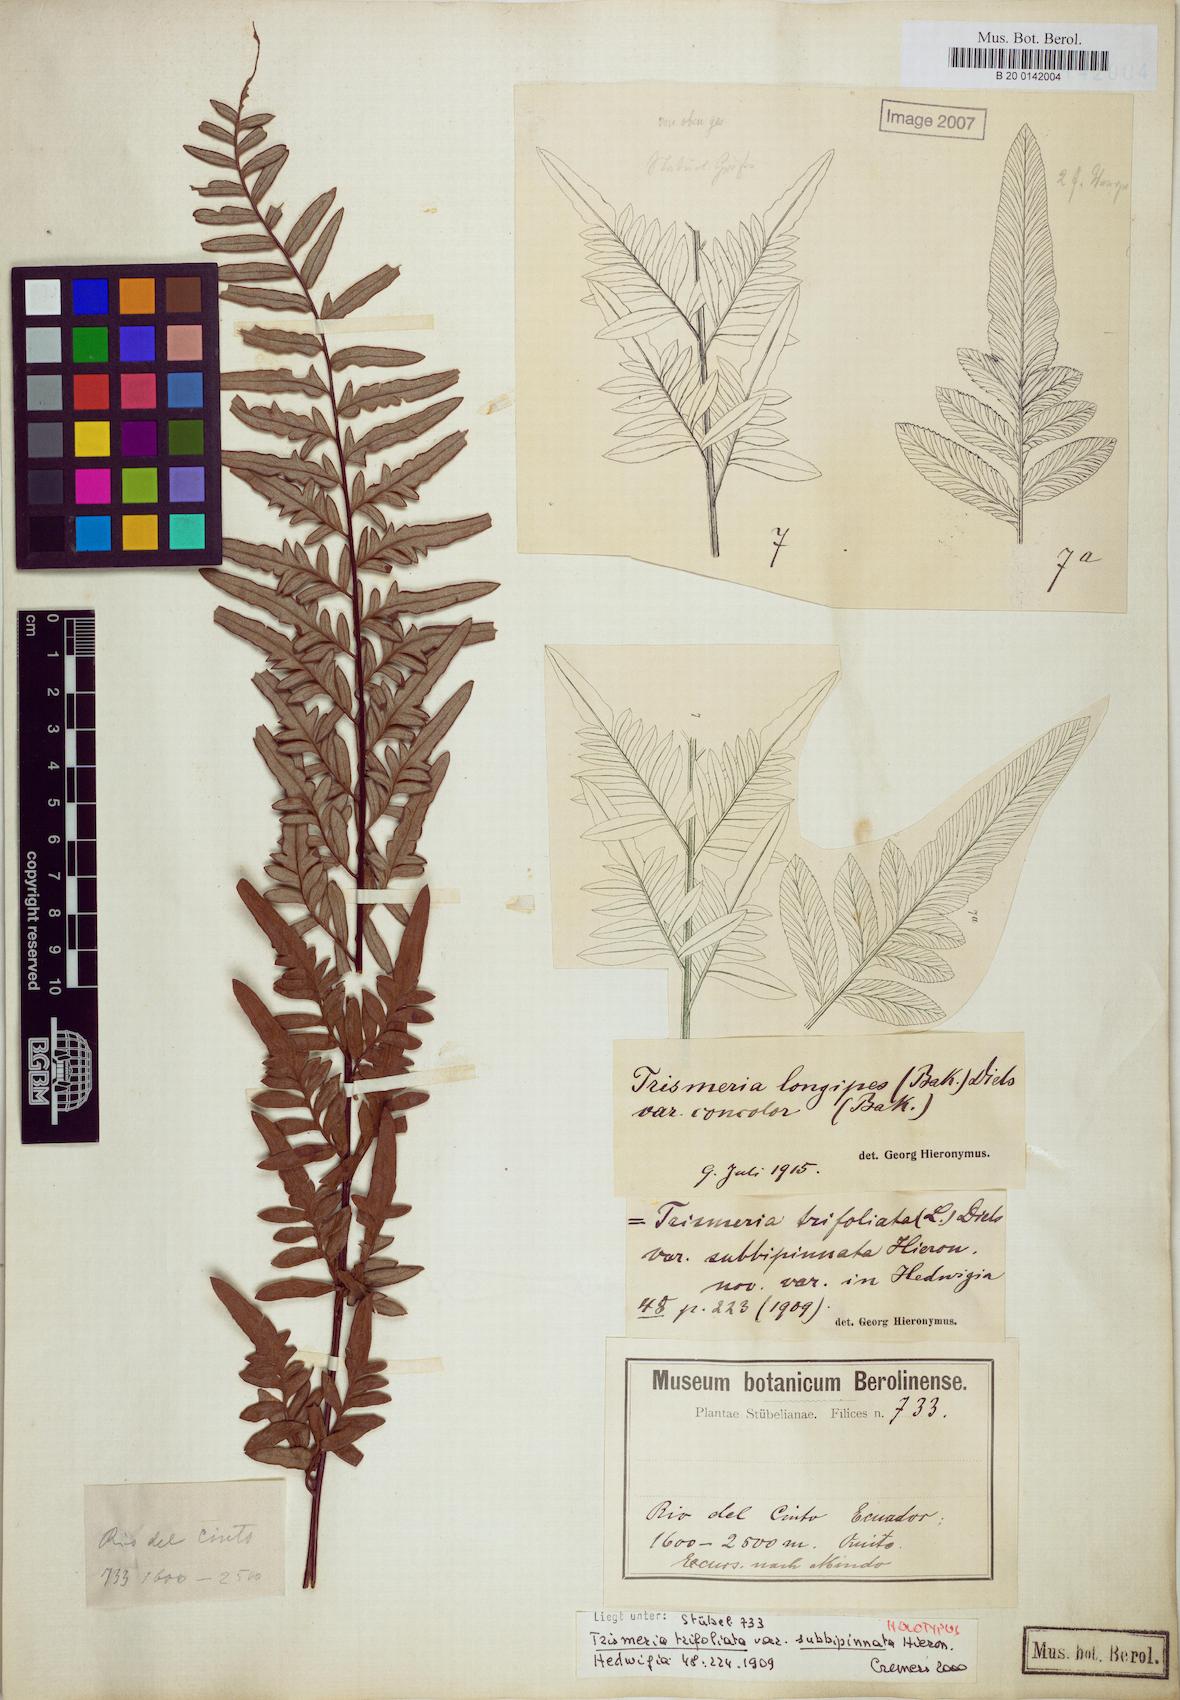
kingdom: Plantae
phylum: Tracheophyta
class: Polypodiopsida
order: Polypodiales
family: Pteridaceae
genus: Pityrogramma
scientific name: Pityrogramma longipes
